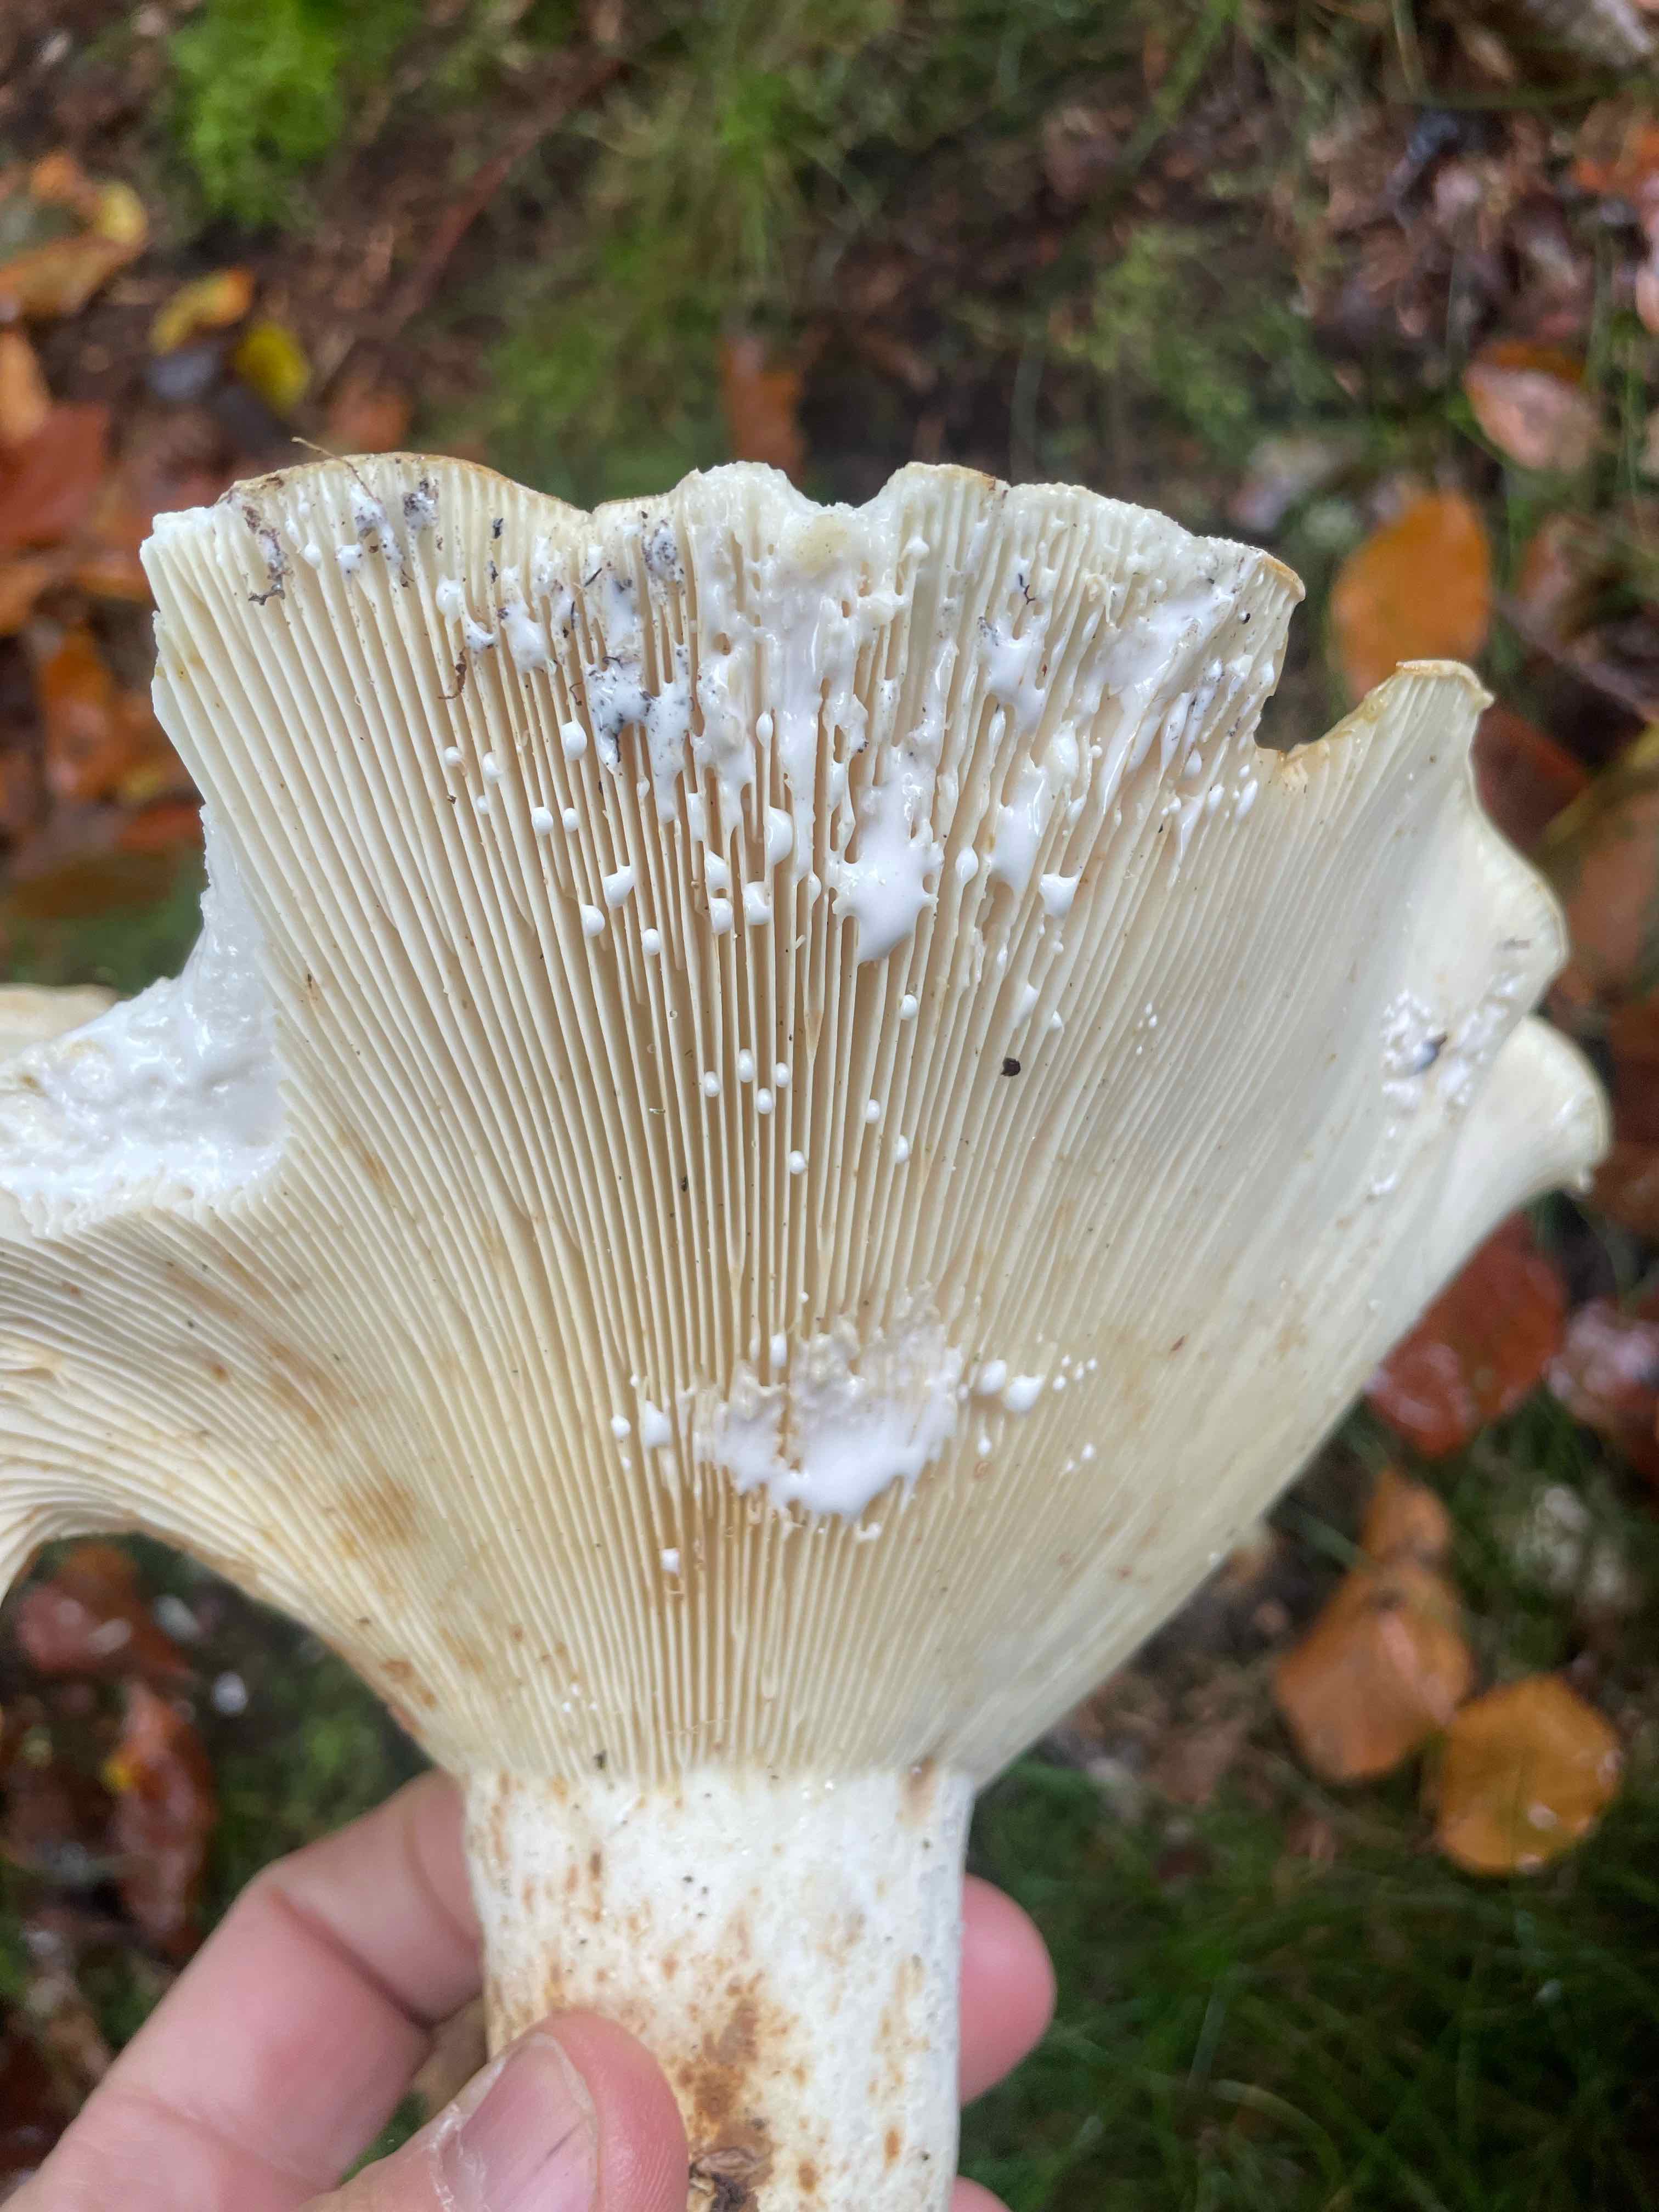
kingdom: Fungi
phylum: Basidiomycota
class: Agaricomycetes
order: Russulales
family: Russulaceae
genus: Lactifluus
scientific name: Lactifluus
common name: mælkehat
